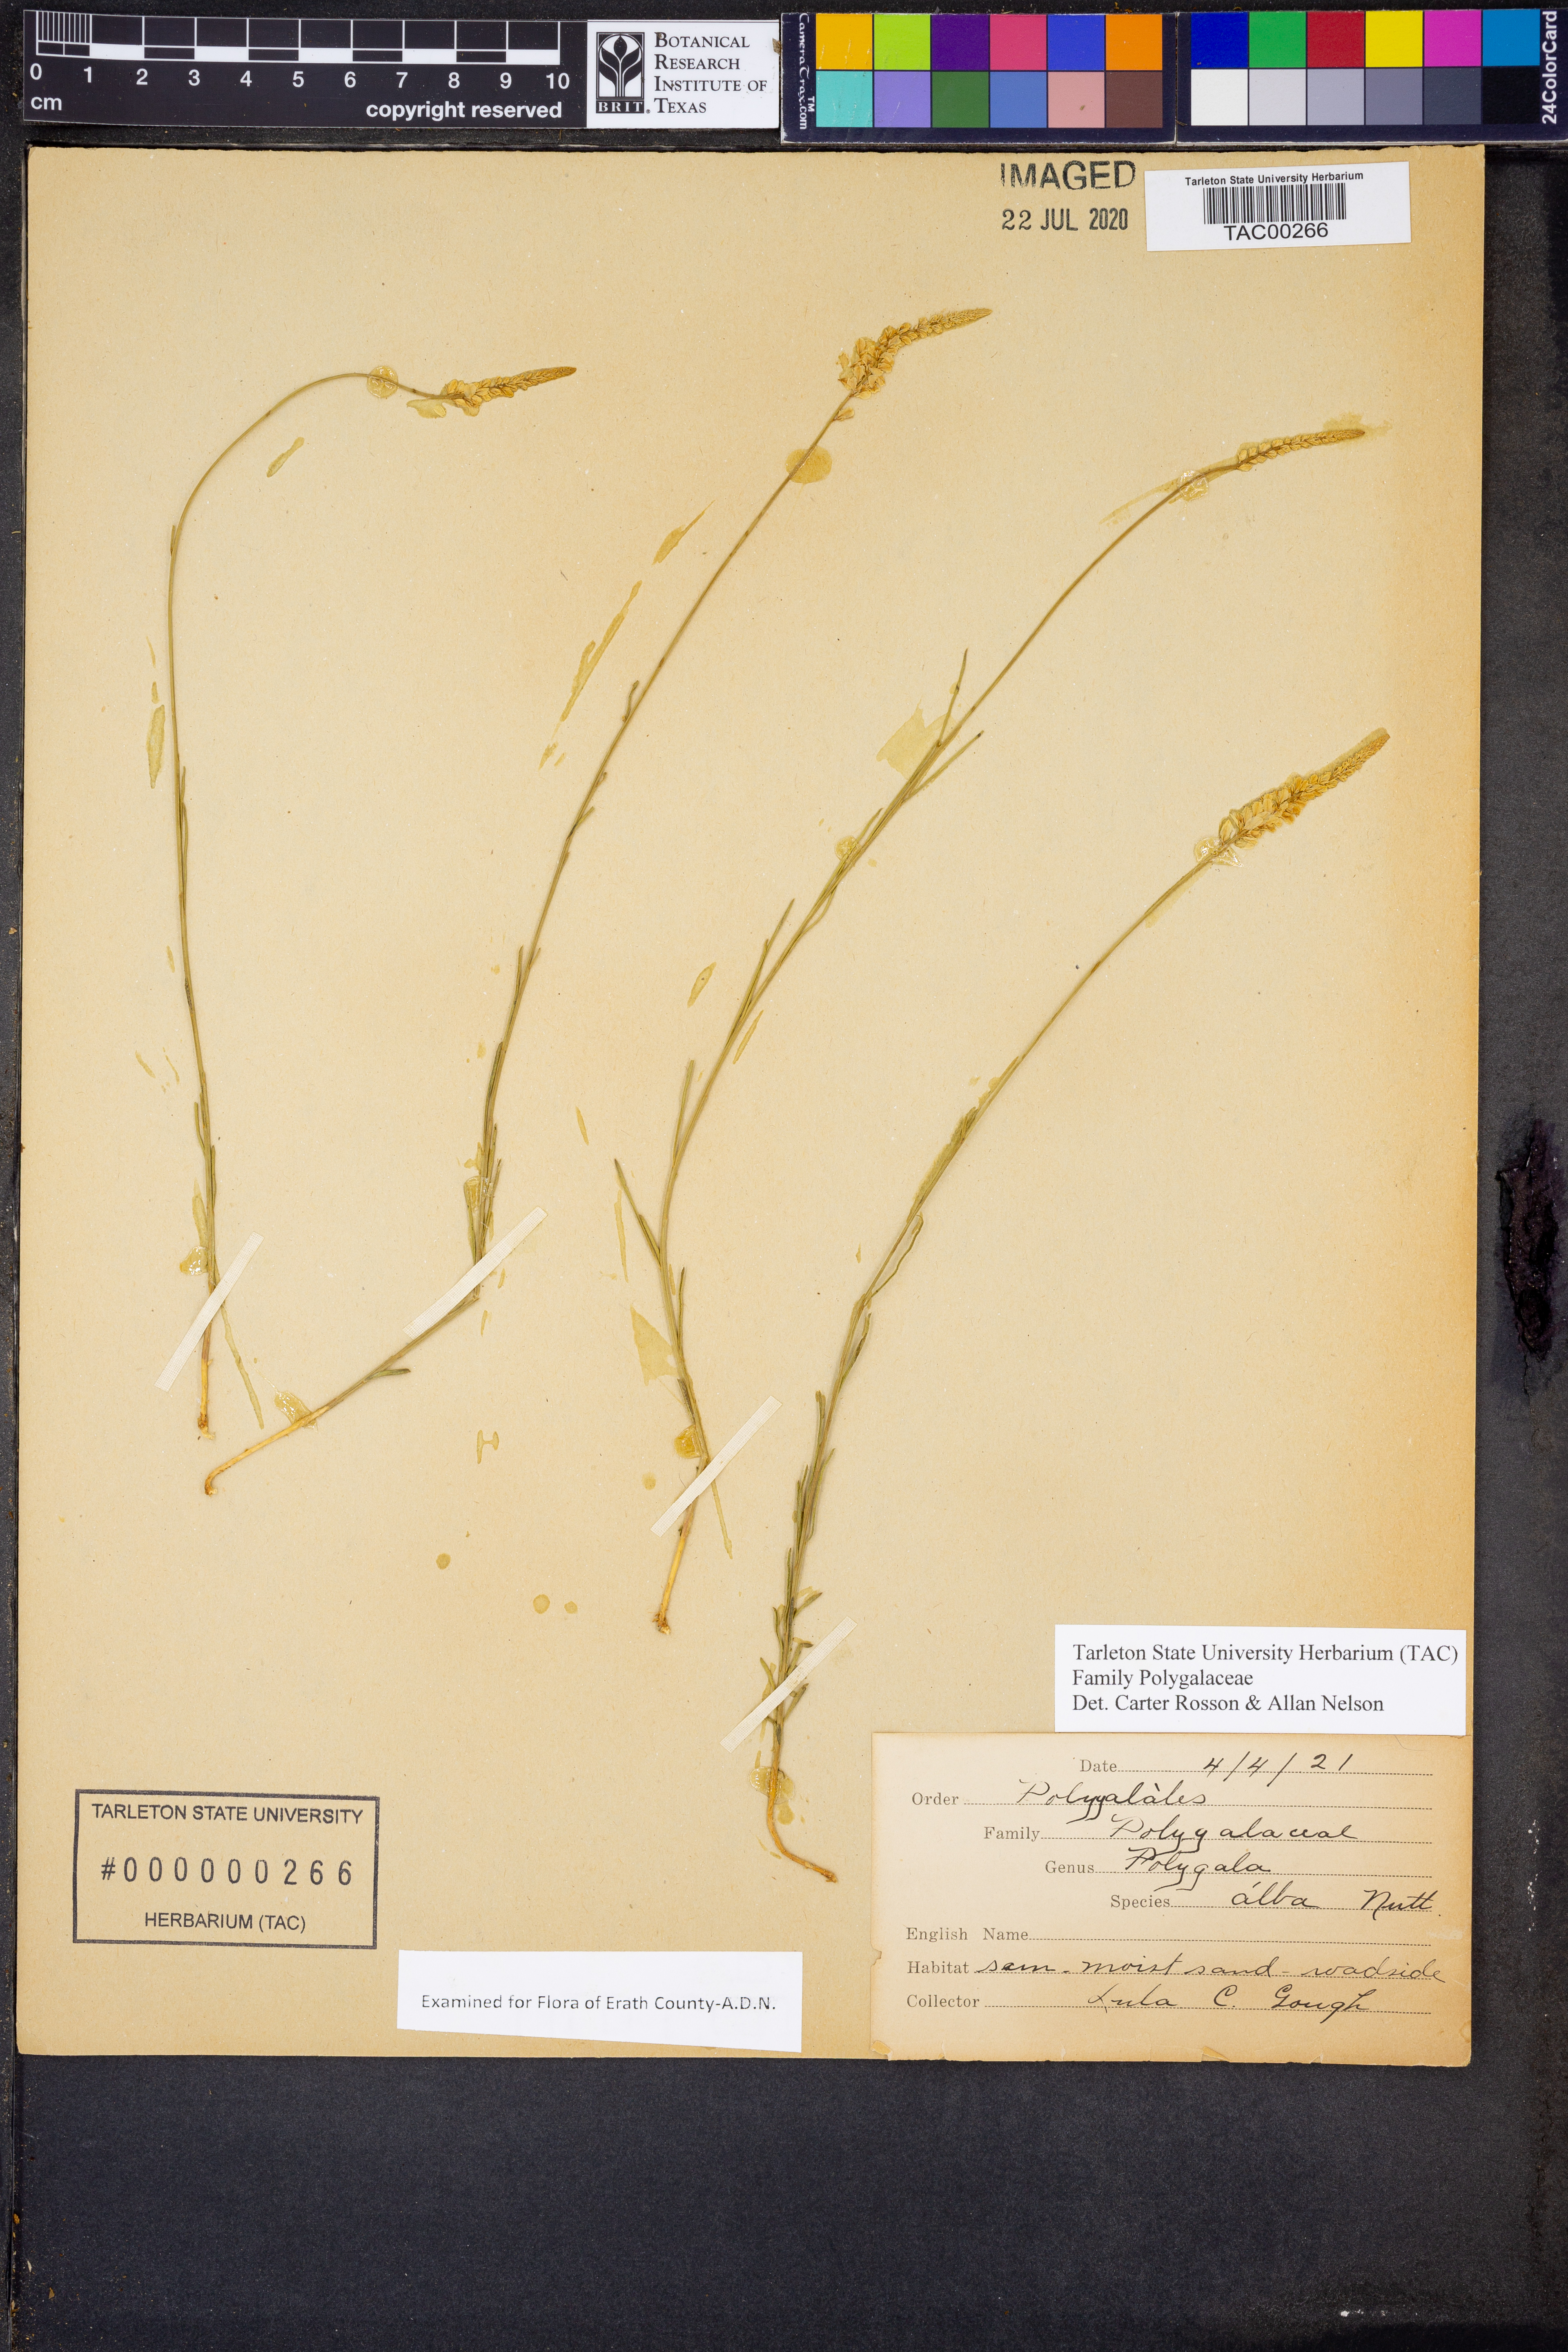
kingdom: Plantae
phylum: Tracheophyta
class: Magnoliopsida
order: Fabales
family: Polygalaceae
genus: Polygala
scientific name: Polygala alba
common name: White milkwort
